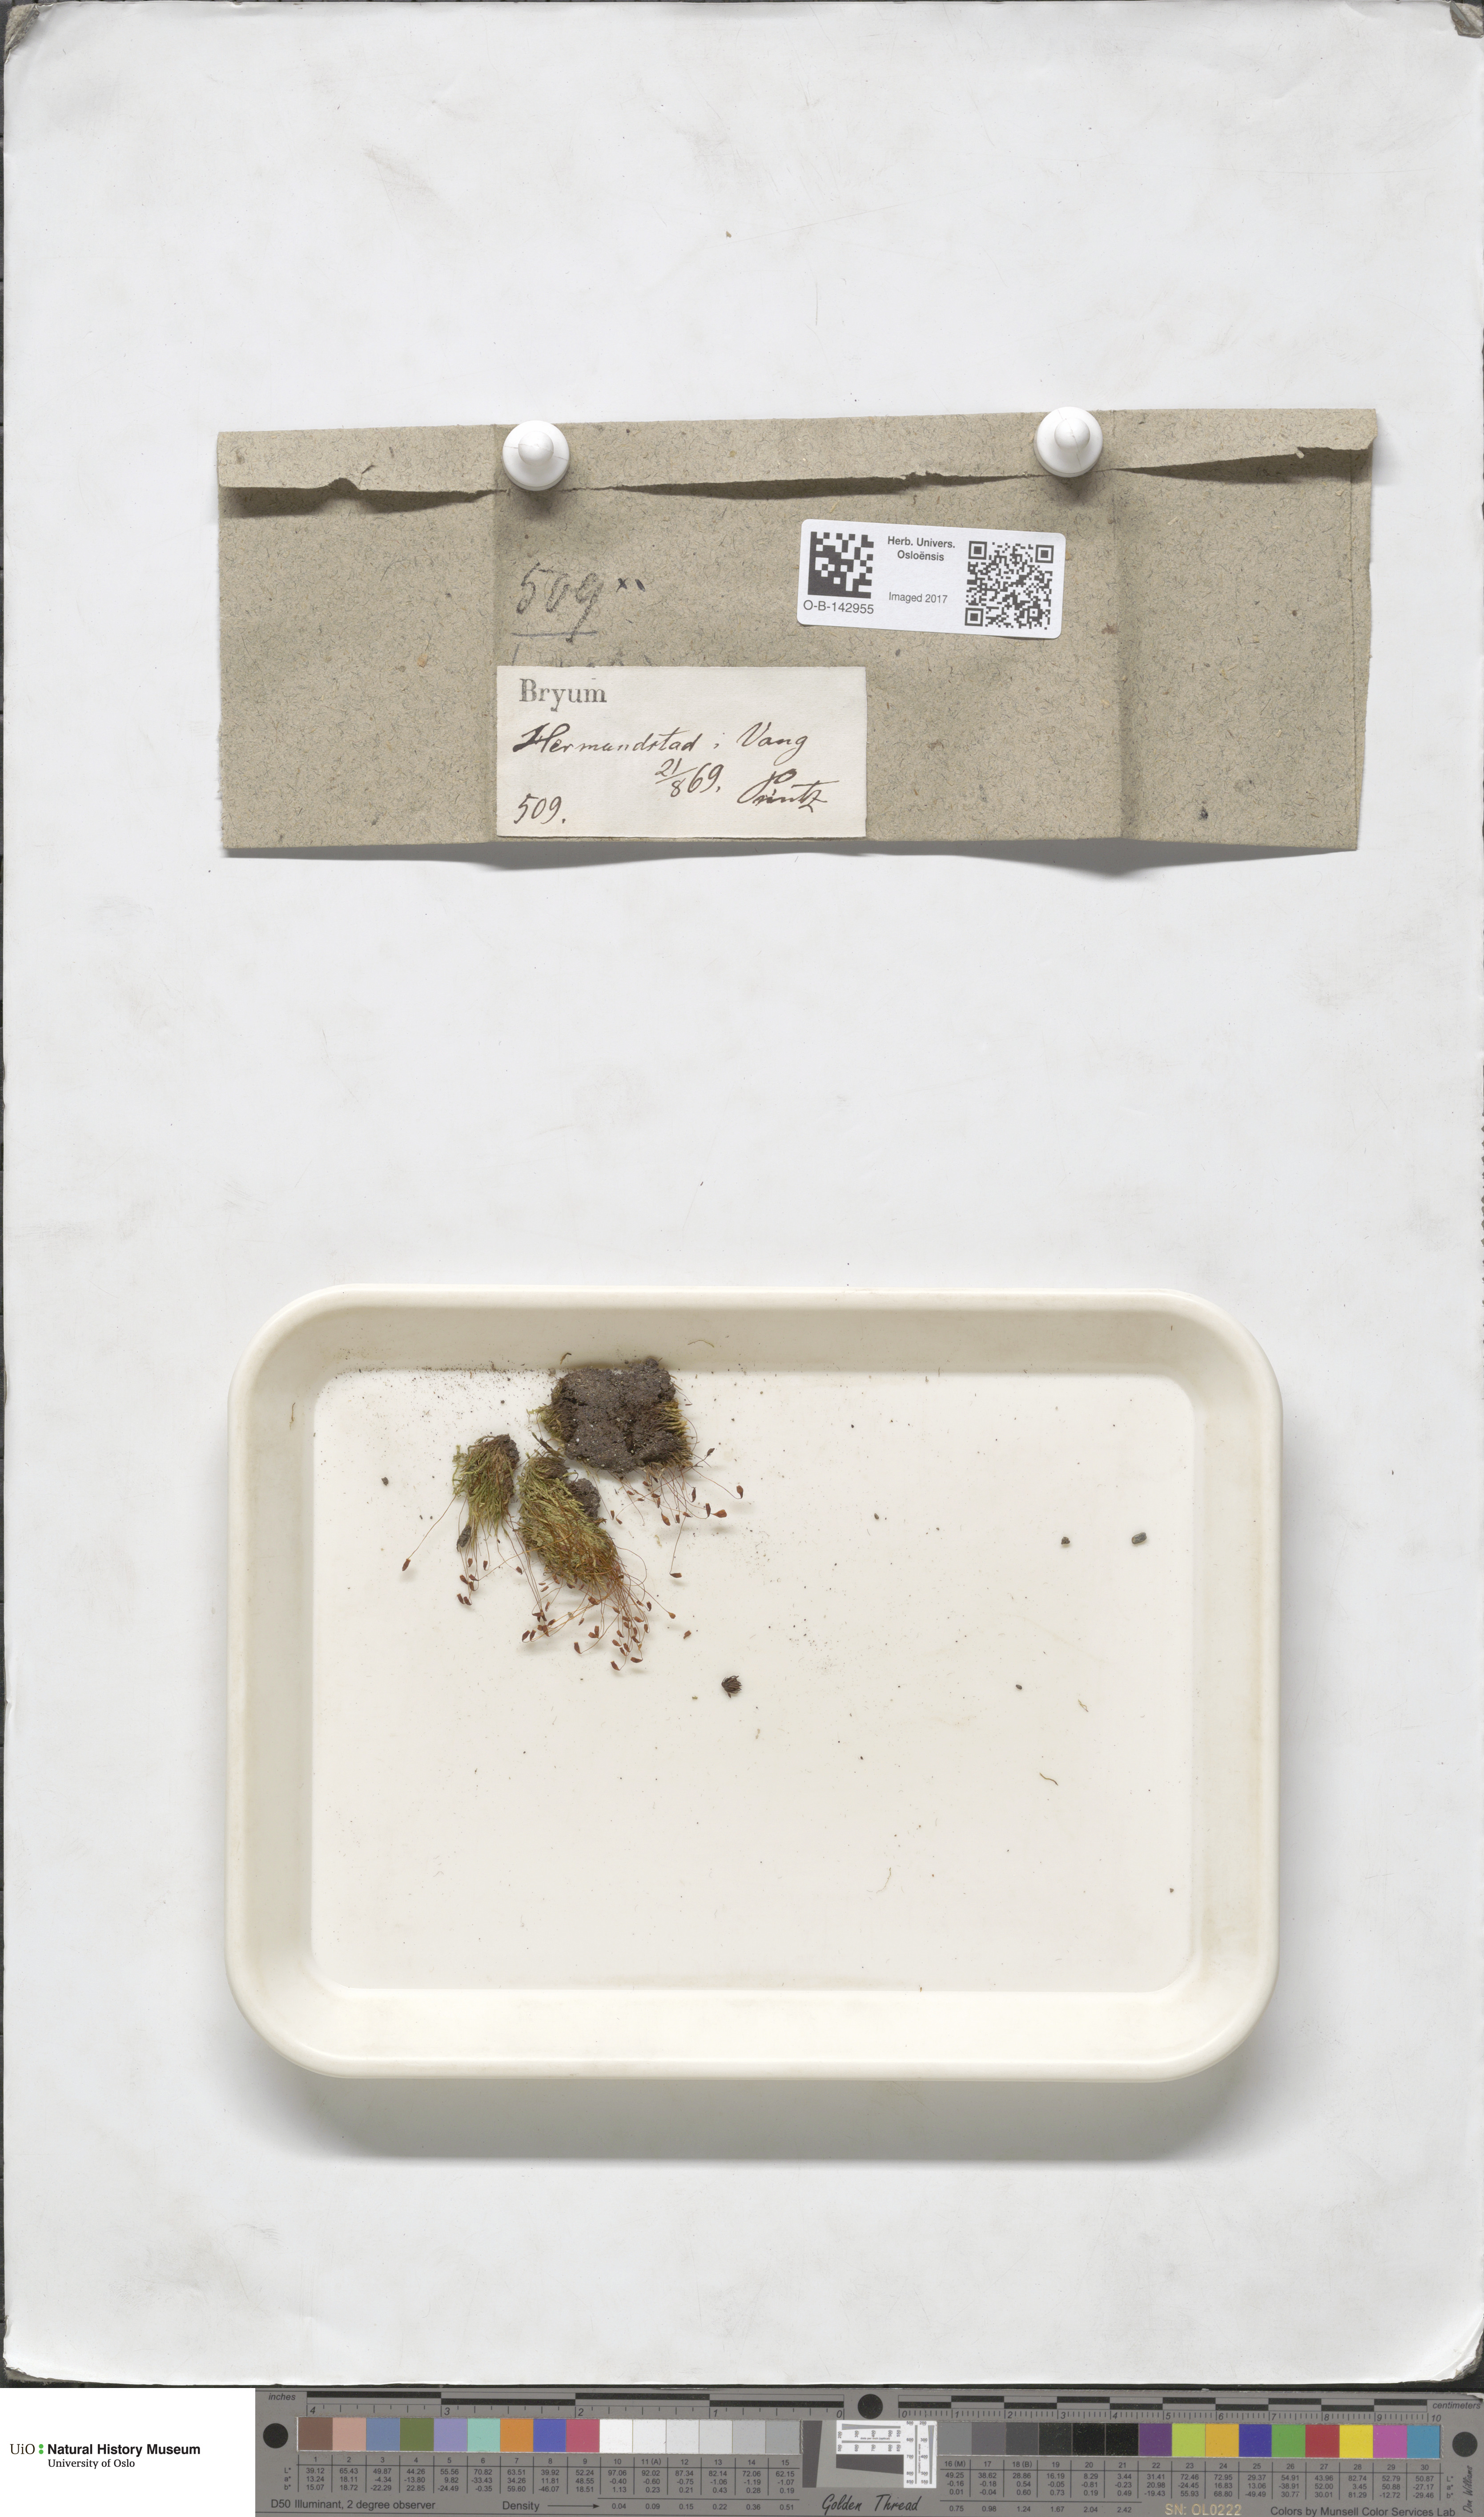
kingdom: Plantae
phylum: Bryophyta
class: Bryopsida
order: Bryales
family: Bryaceae
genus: Bryum
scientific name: Bryum
